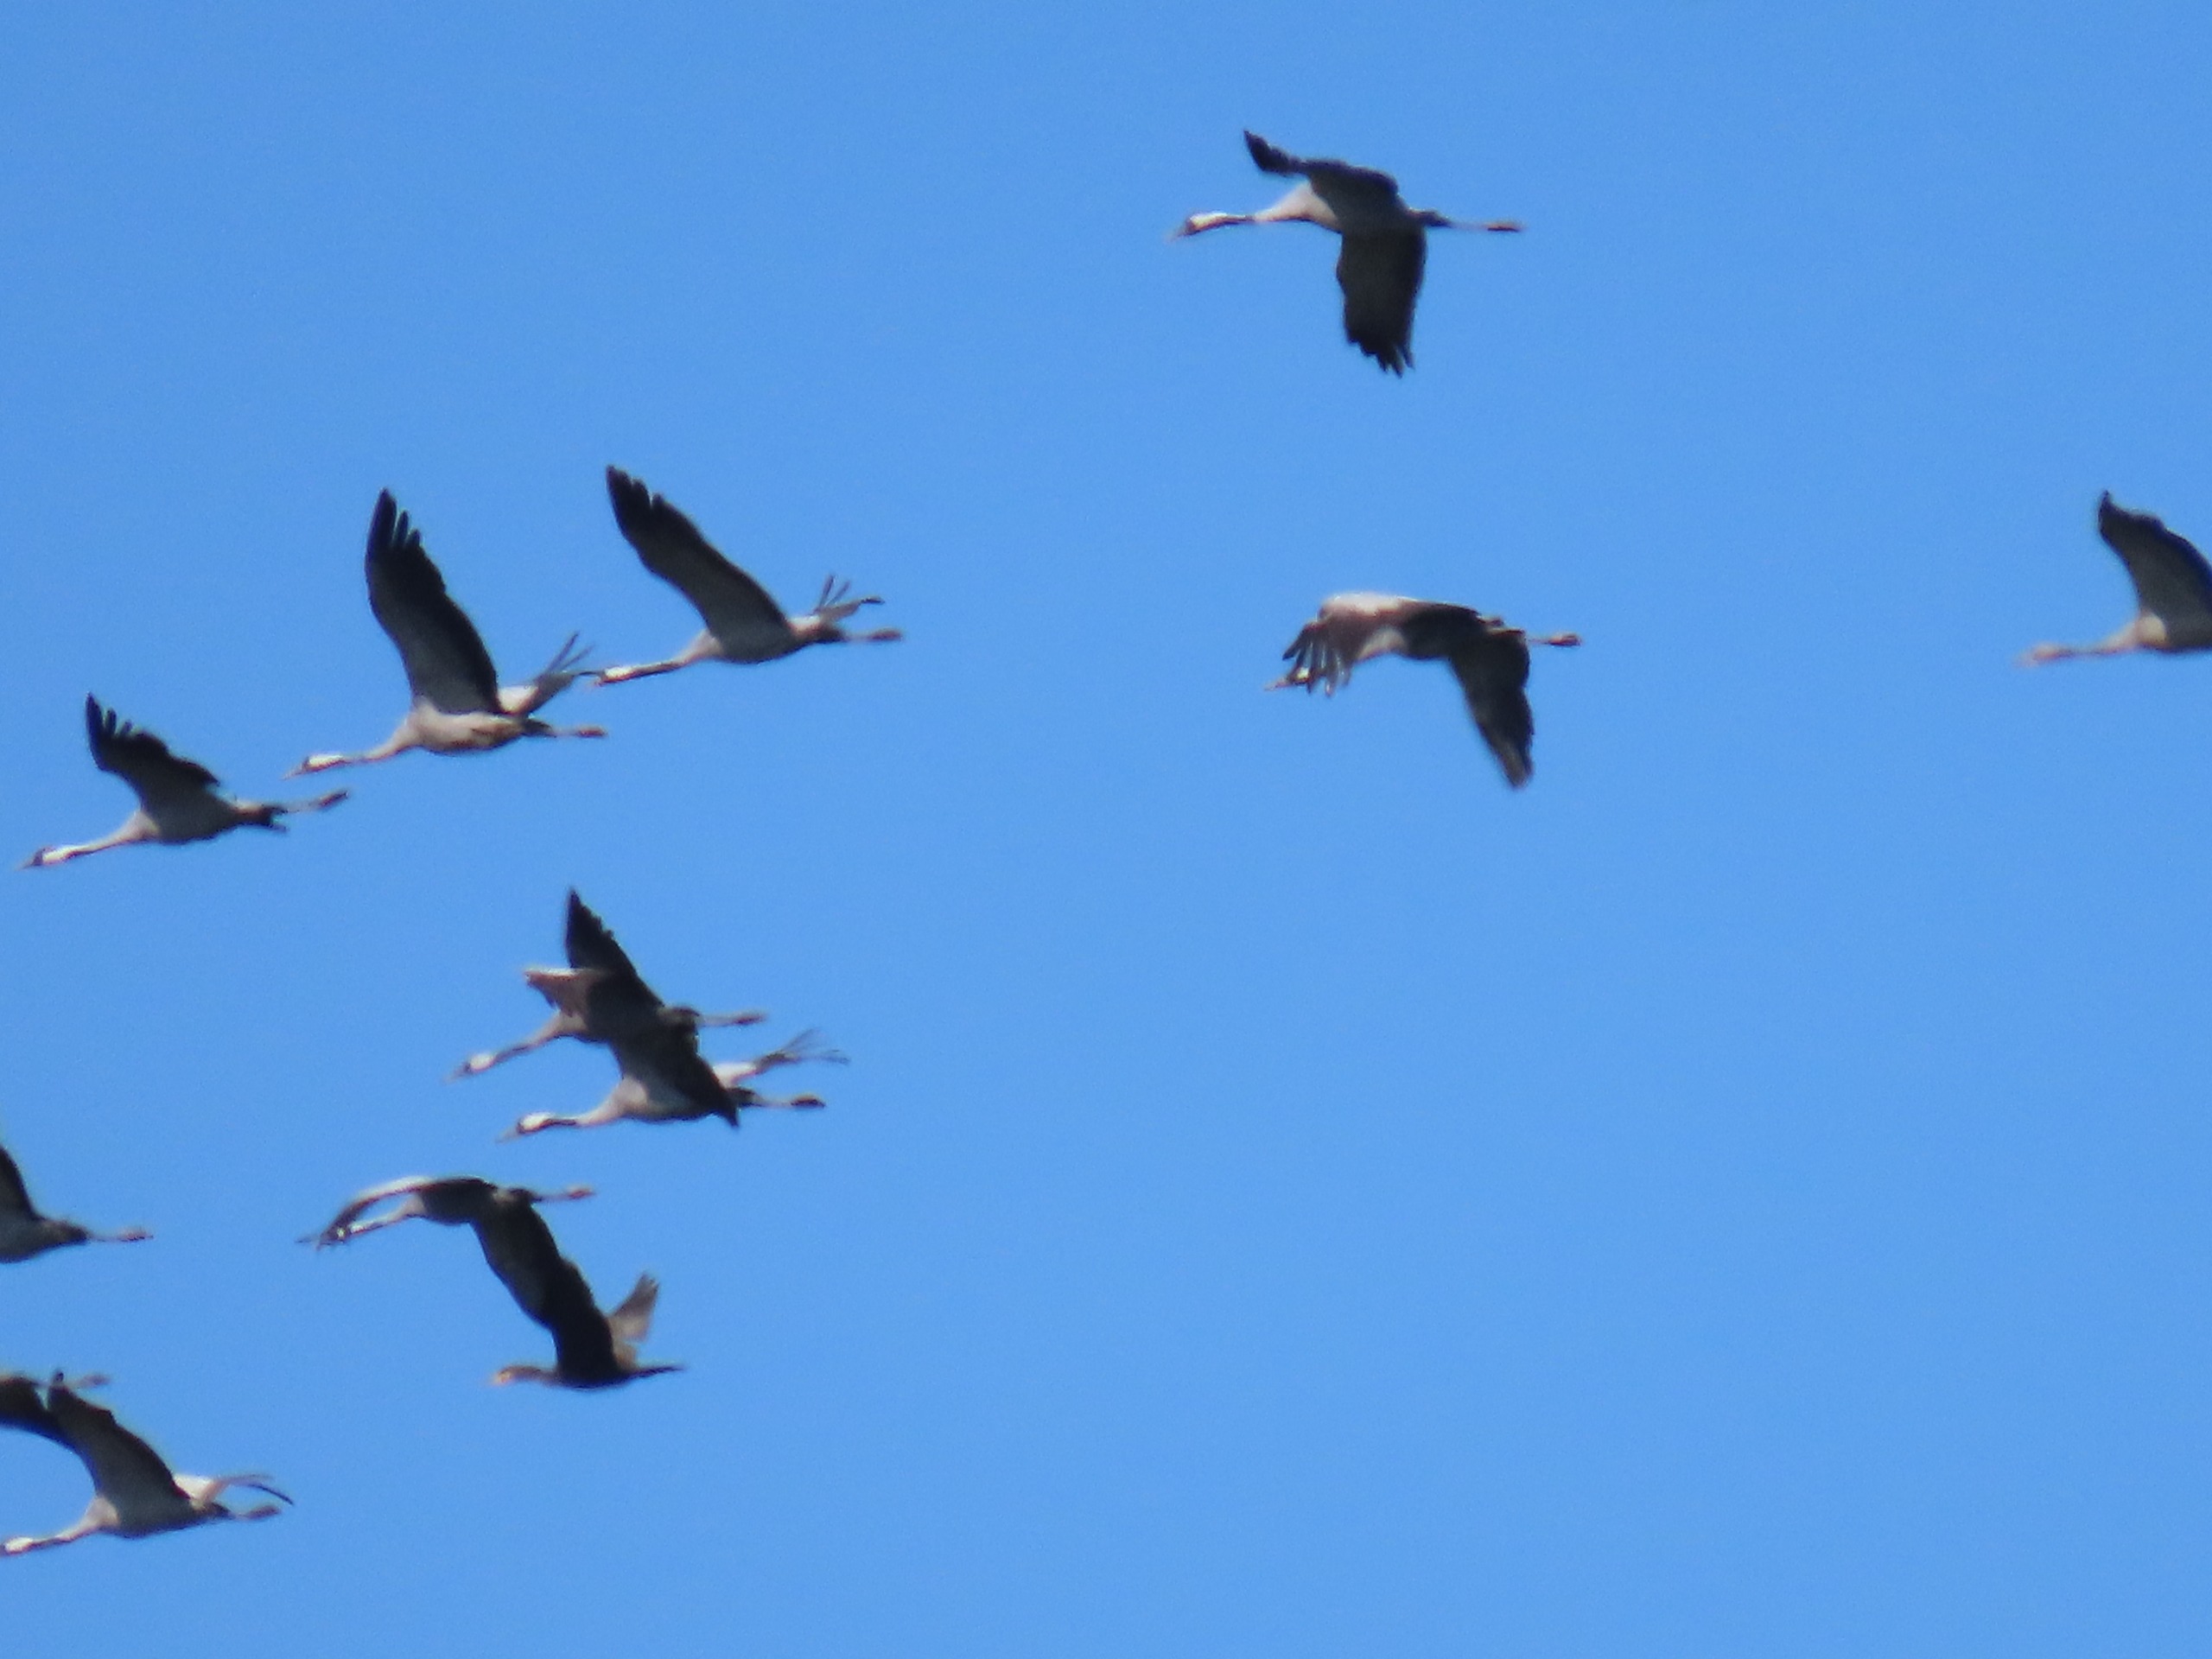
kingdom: Animalia
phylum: Chordata
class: Aves
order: Gruiformes
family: Gruidae
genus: Grus
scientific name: Grus grus
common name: Trane
